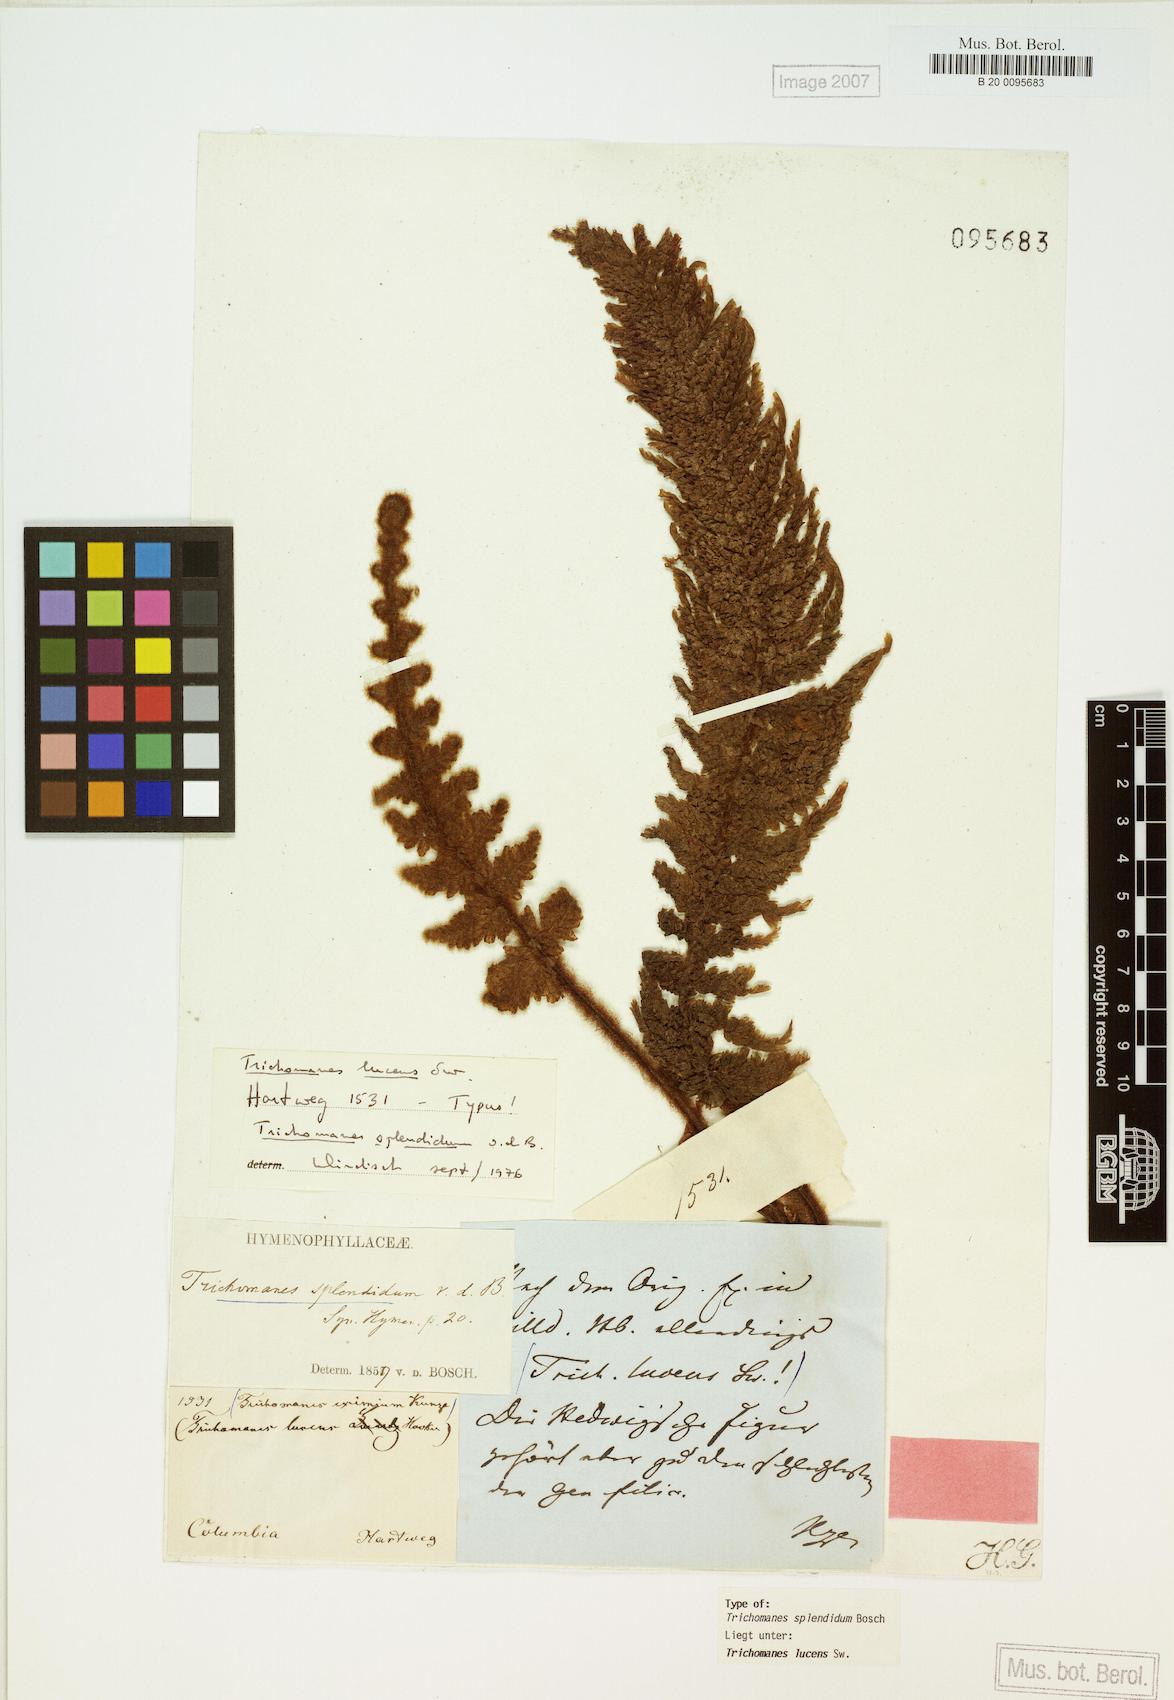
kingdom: Plantae
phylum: Tracheophyta
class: Polypodiopsida
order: Hymenophyllales
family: Hymenophyllaceae
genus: Trichomanes
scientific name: Trichomanes lucens
